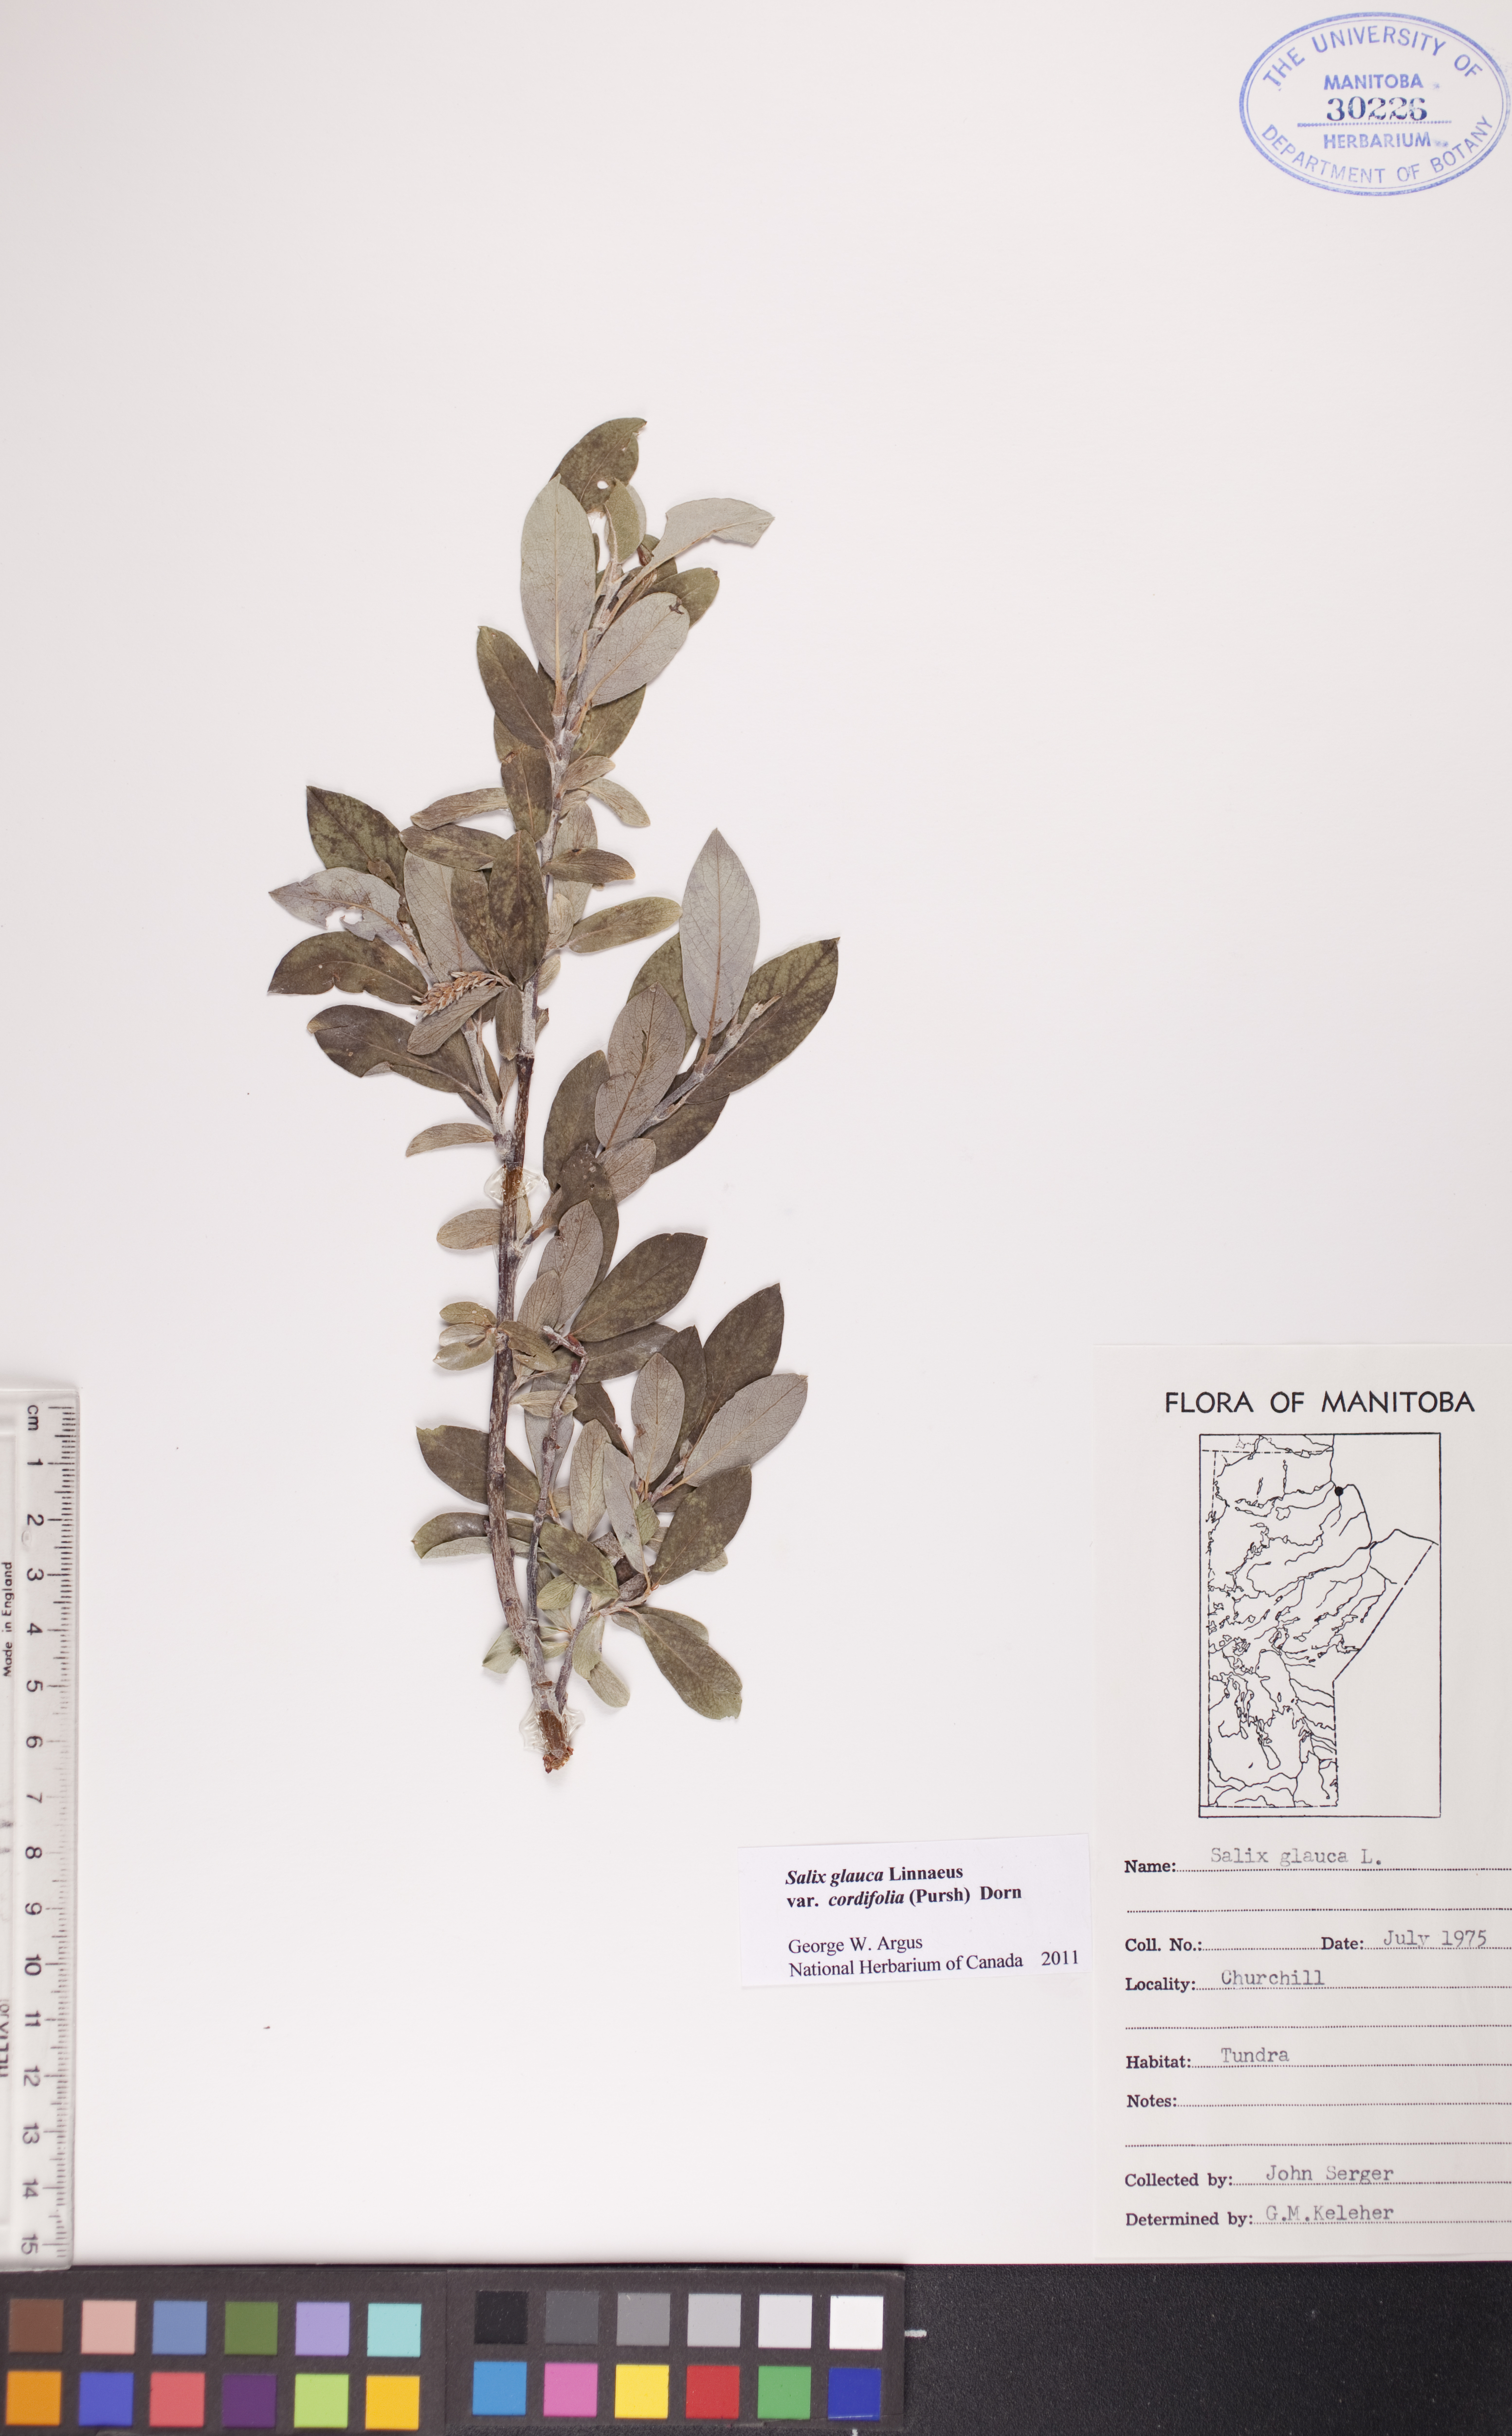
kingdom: Plantae
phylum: Tracheophyta
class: Magnoliopsida
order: Malpighiales
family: Salicaceae
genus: Salix
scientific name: Salix glauca
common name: Glaucous willow
